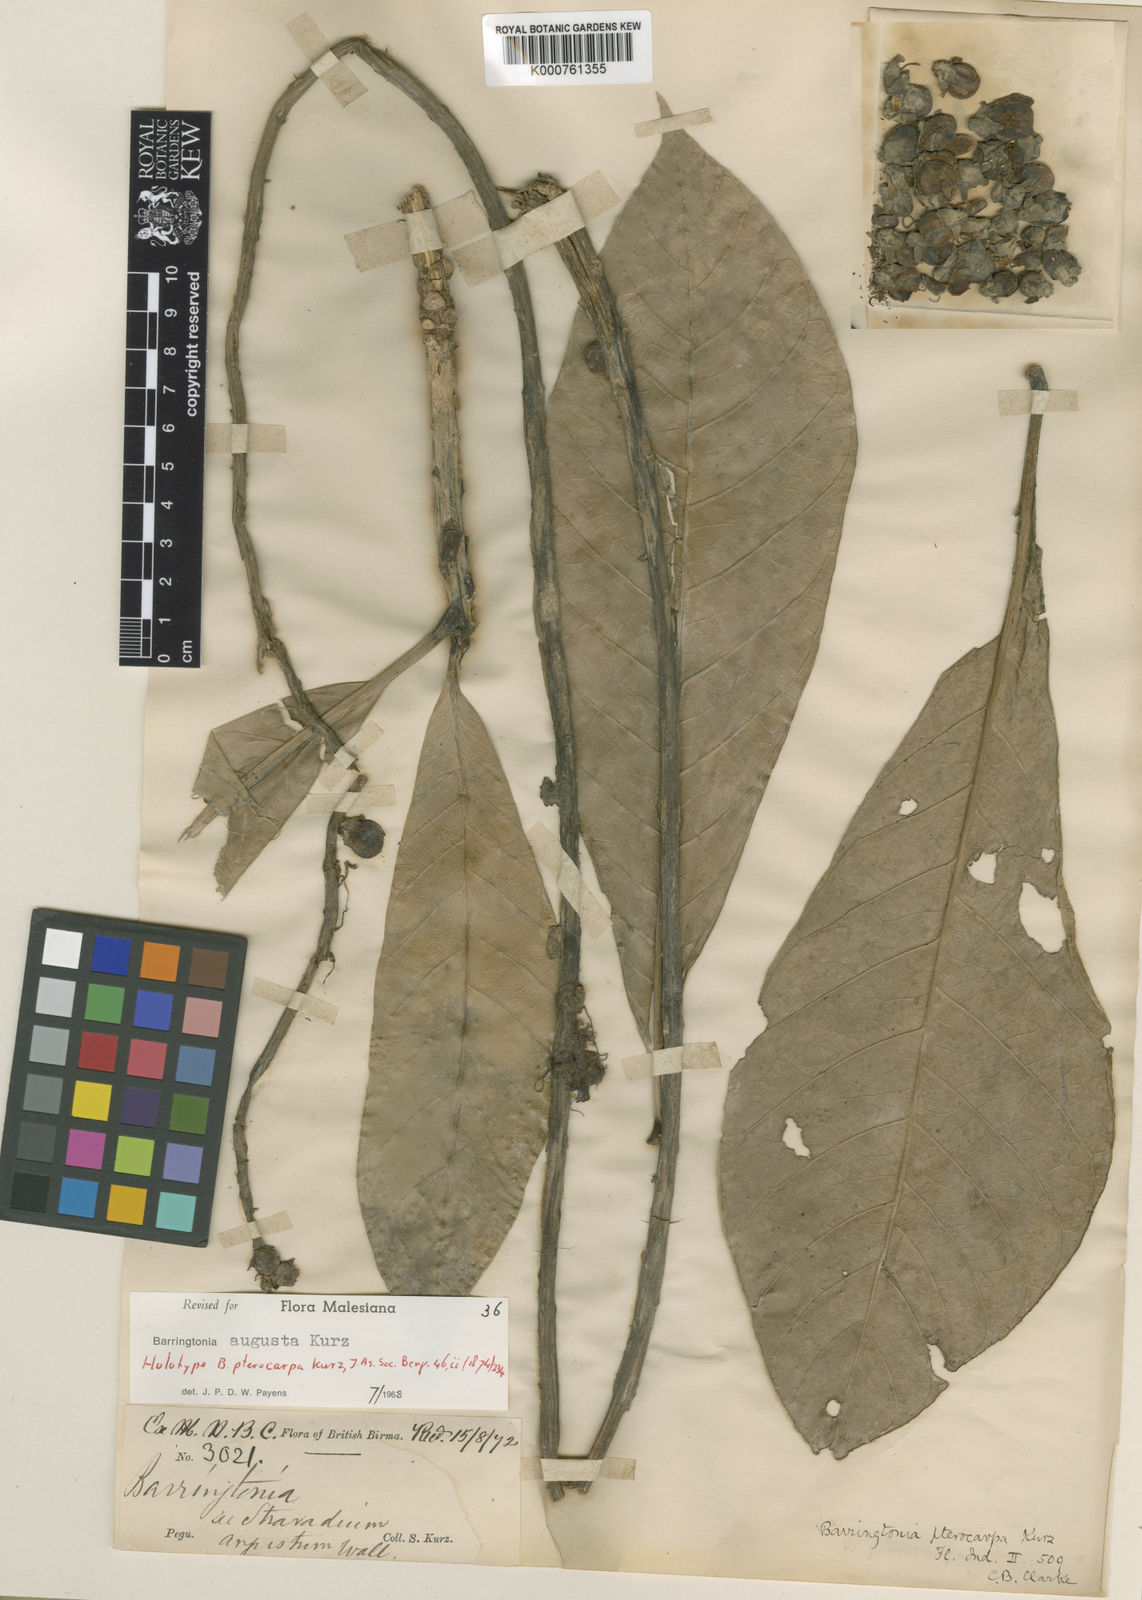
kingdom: Plantae
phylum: Tracheophyta
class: Magnoliopsida
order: Ericales
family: Lecythidaceae
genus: Barringtonia
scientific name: Barringtonia augusta
